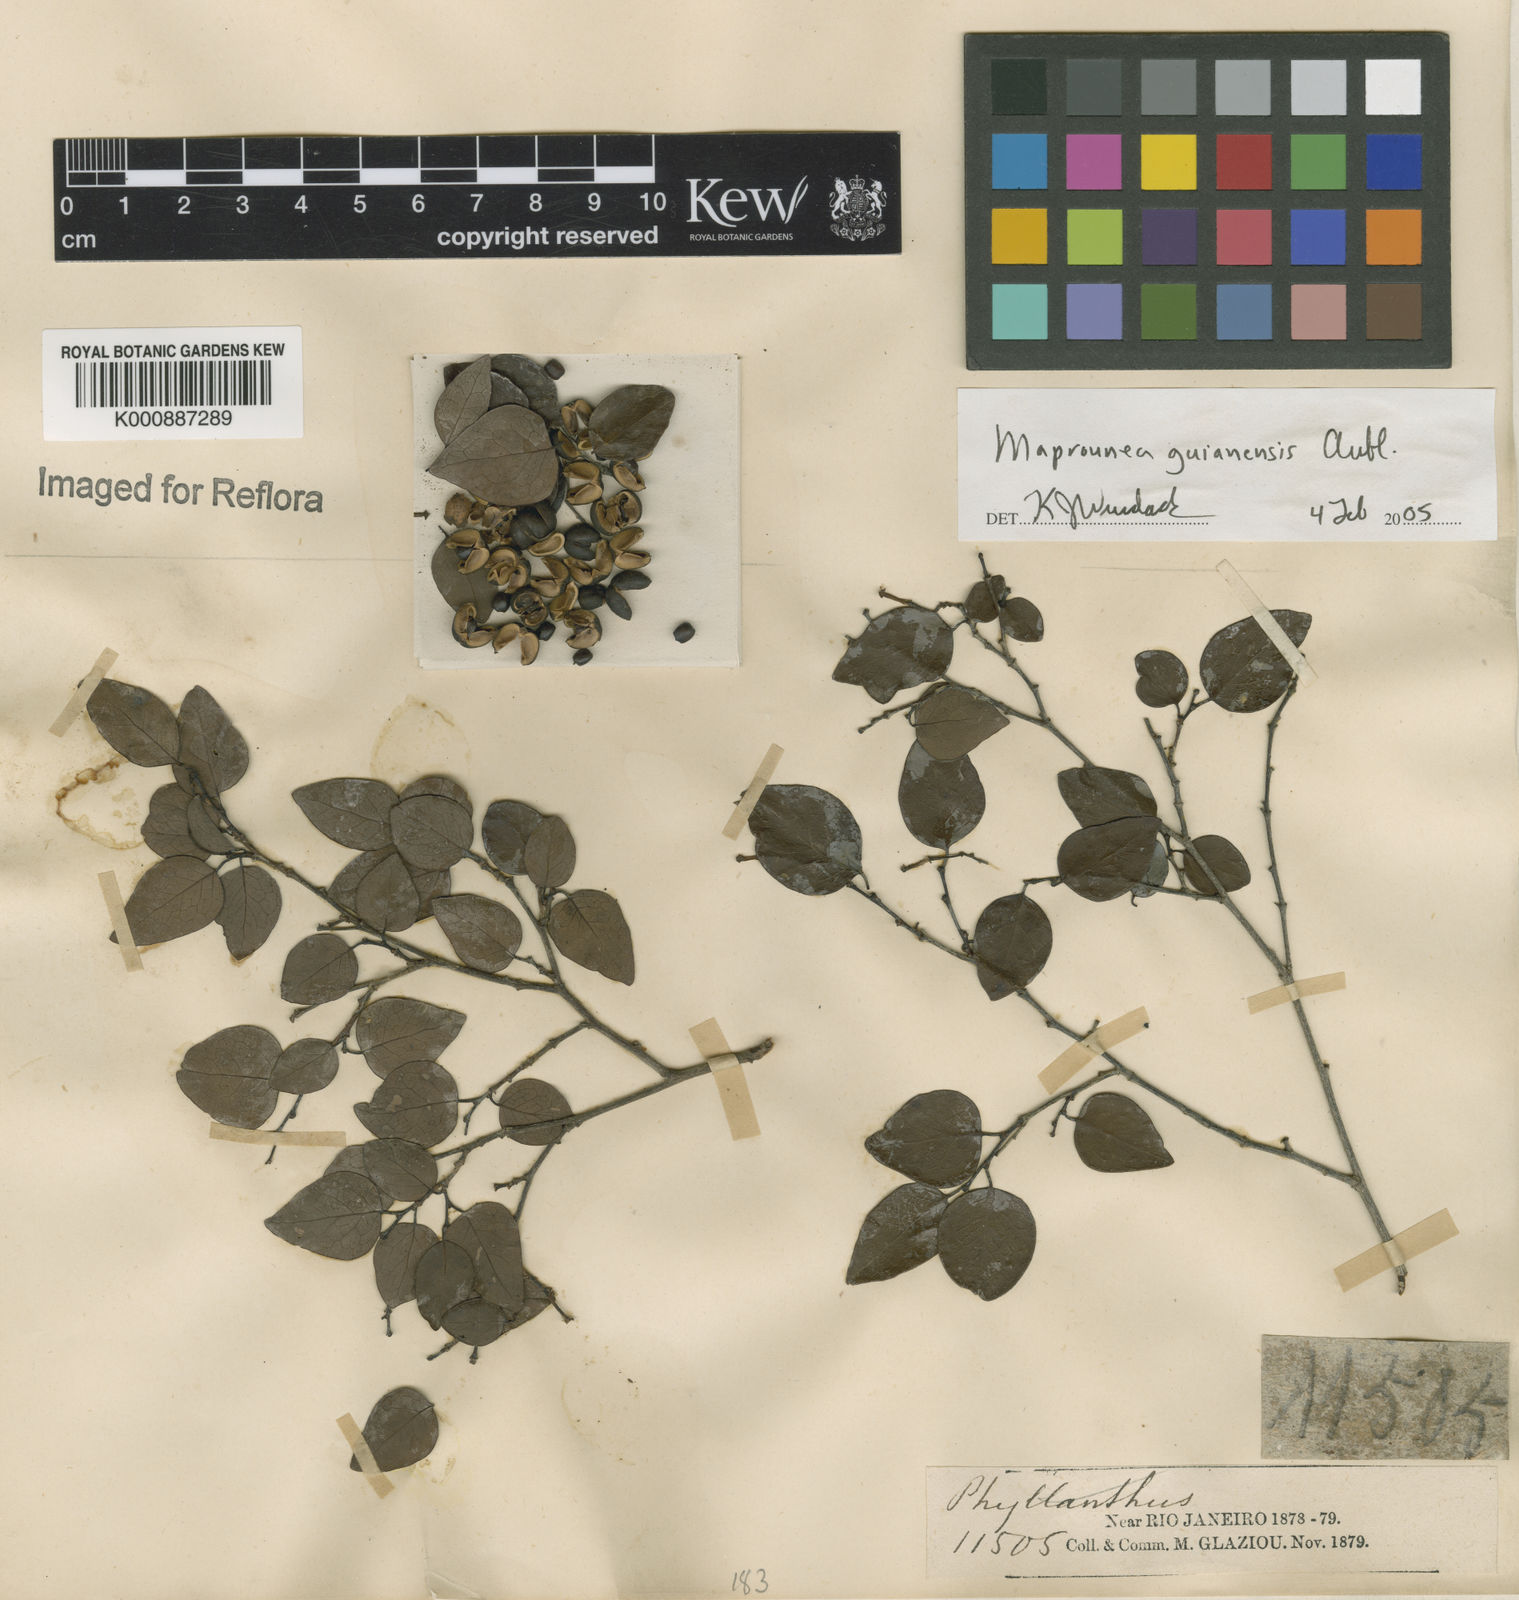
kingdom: Plantae
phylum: Tracheophyta
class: Magnoliopsida
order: Malpighiales
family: Euphorbiaceae
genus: Maprounea
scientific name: Maprounea guianensis
